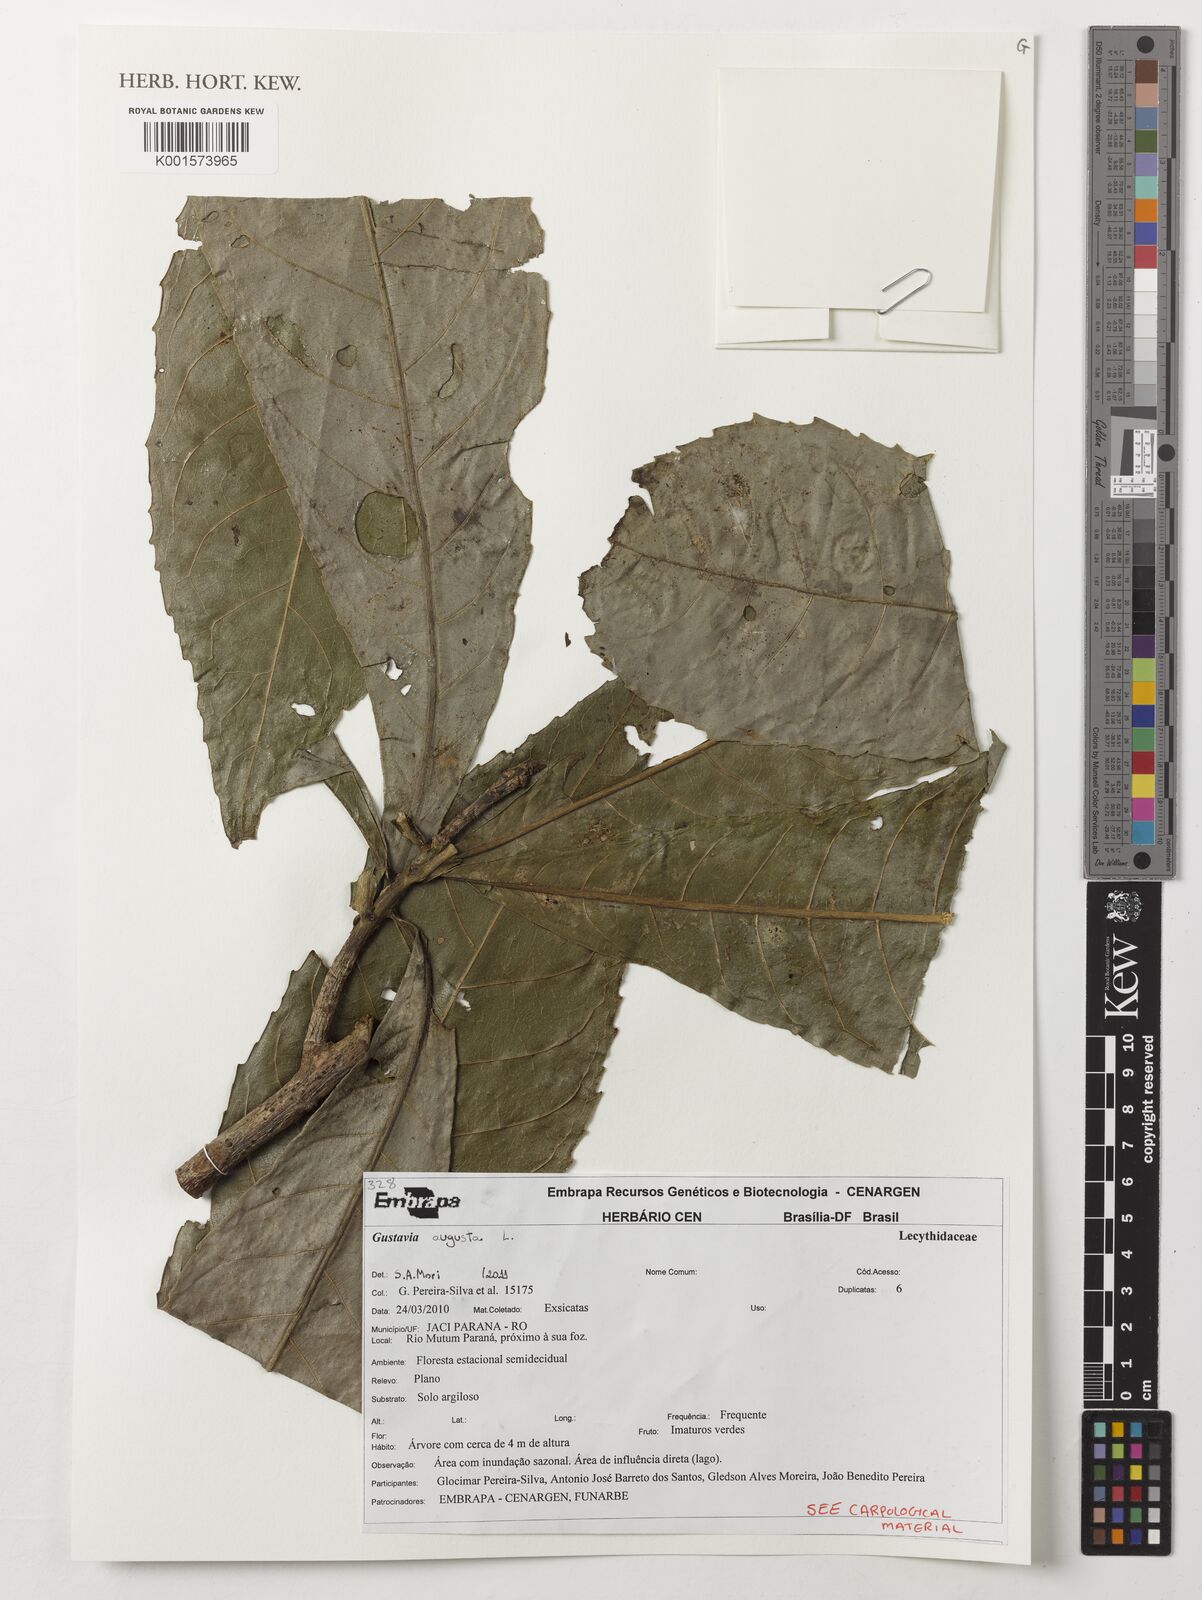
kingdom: Plantae
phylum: Tracheophyta
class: Magnoliopsida
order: Ericales
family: Lecythidaceae
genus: Gustavia
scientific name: Gustavia augusta
